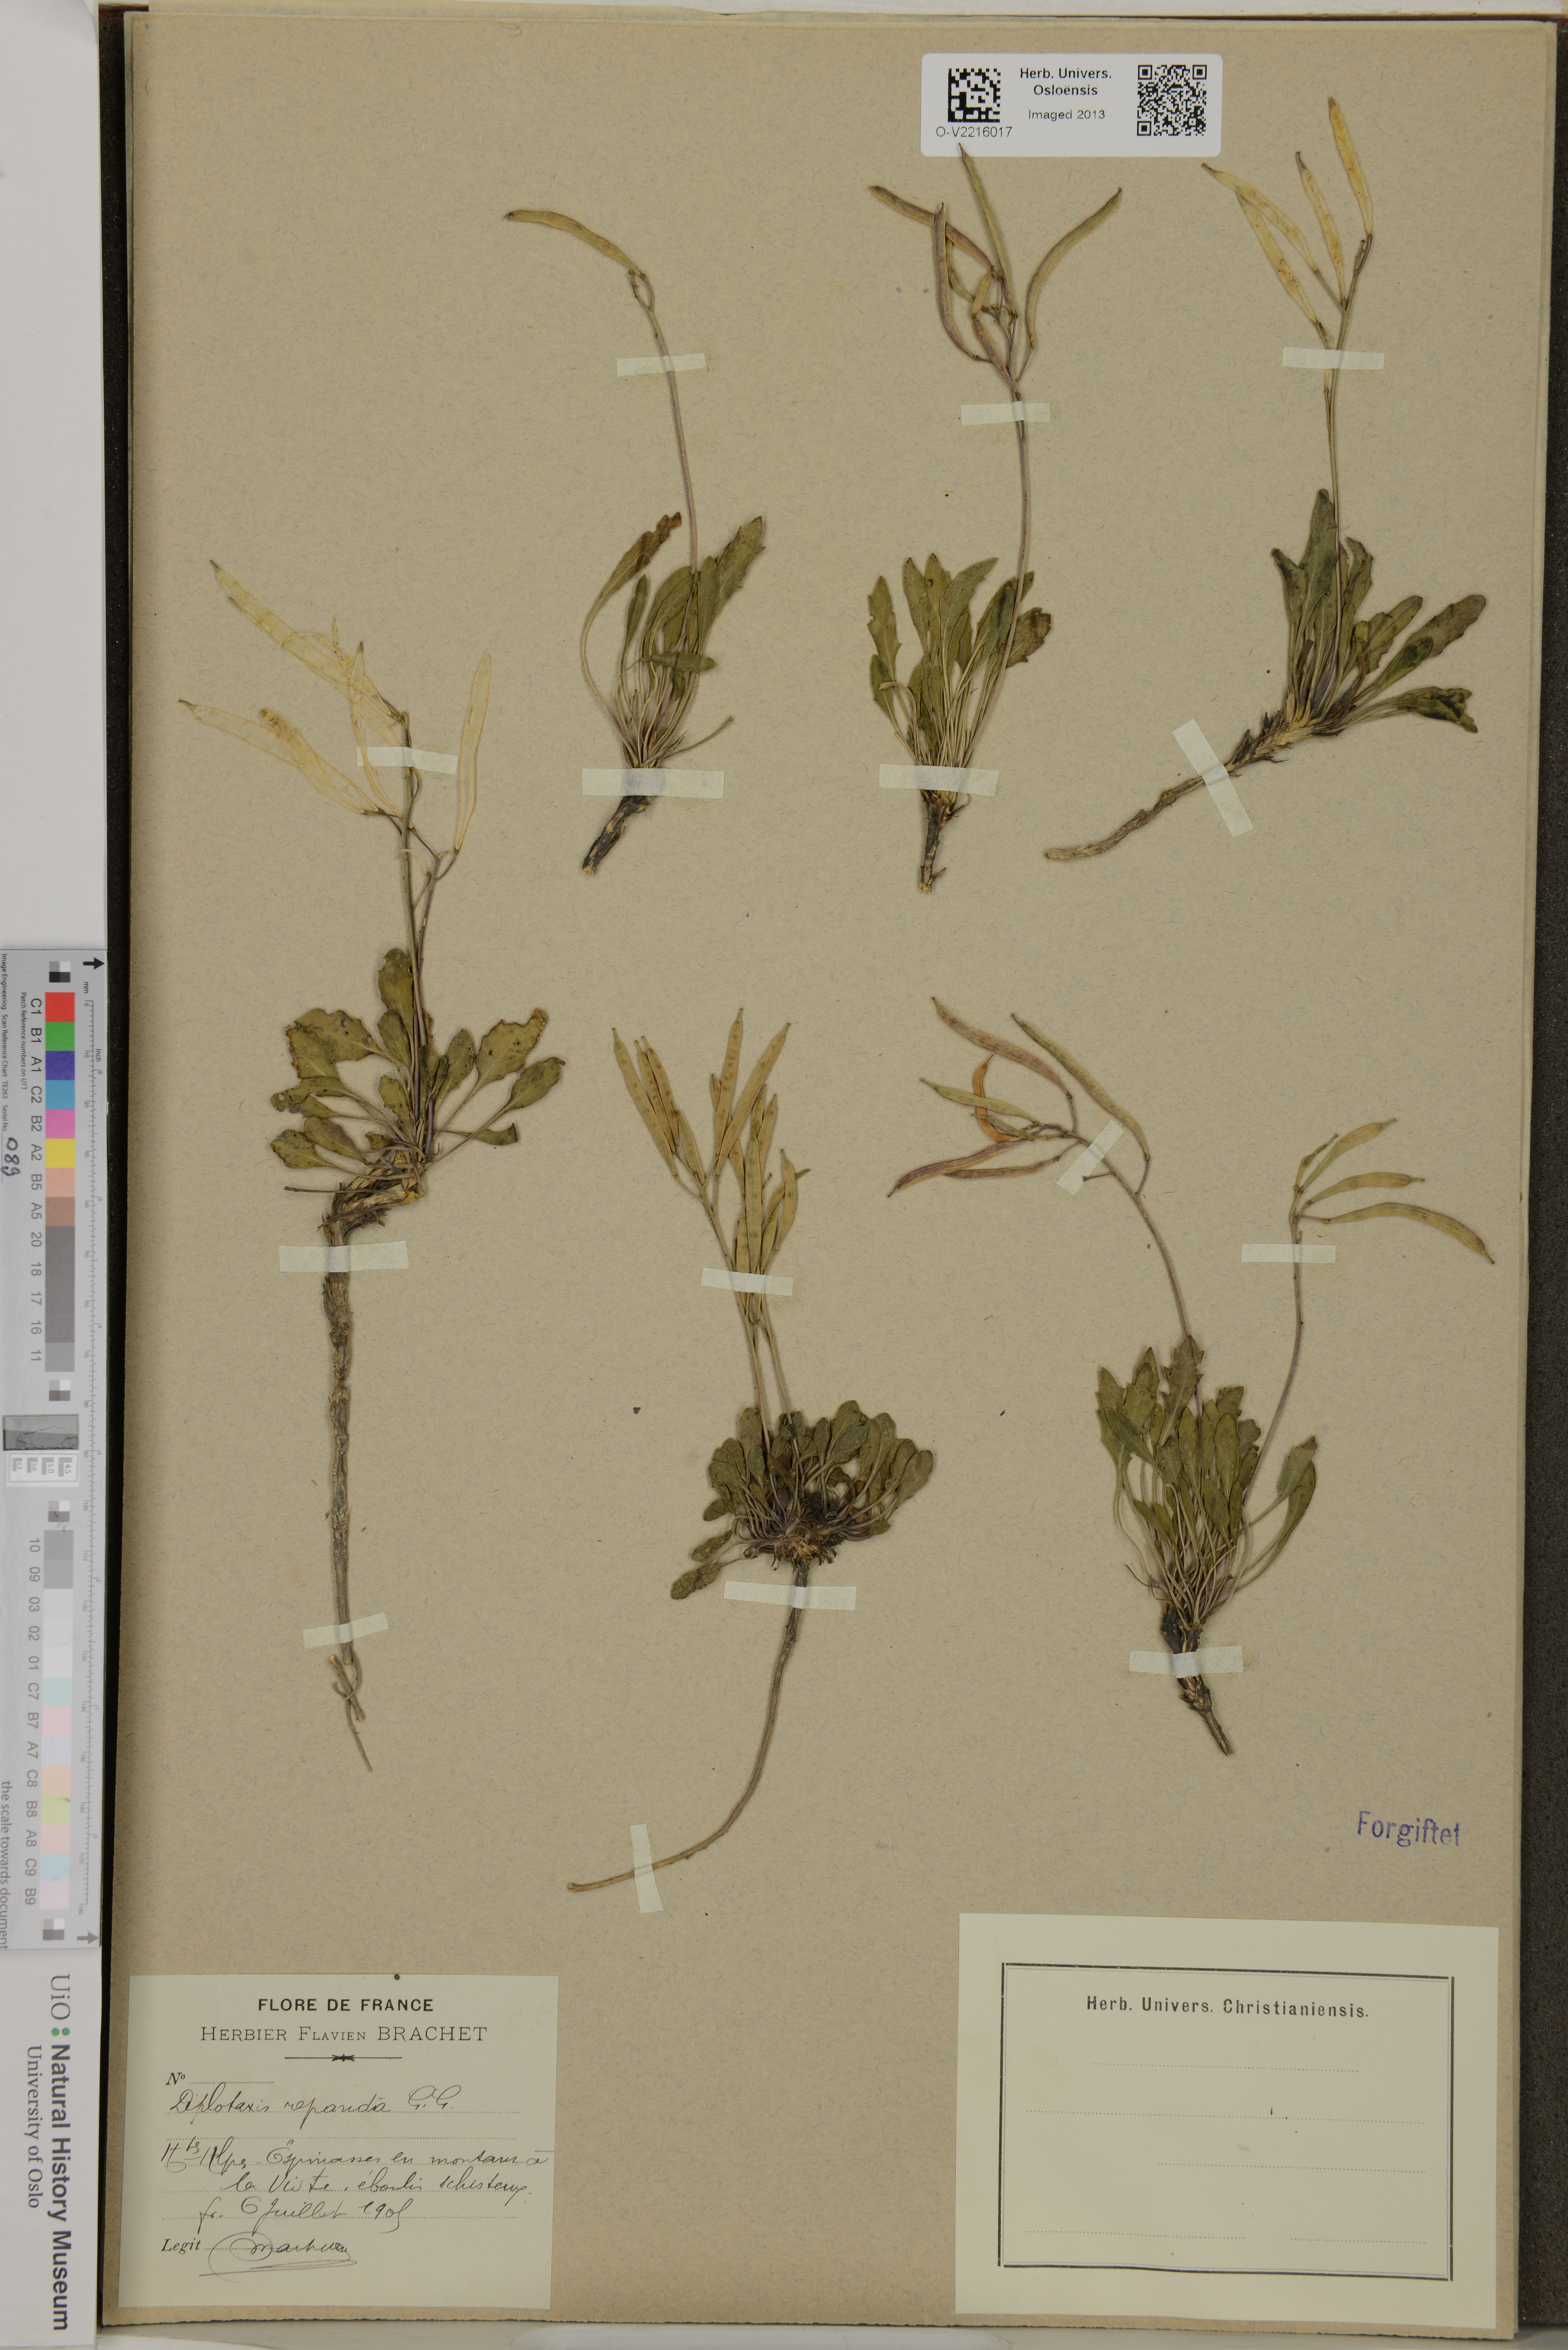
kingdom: Plantae
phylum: Tracheophyta
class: Magnoliopsida
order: Brassicales
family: Brassicaceae
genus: Brassica
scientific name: Brassica repanda
